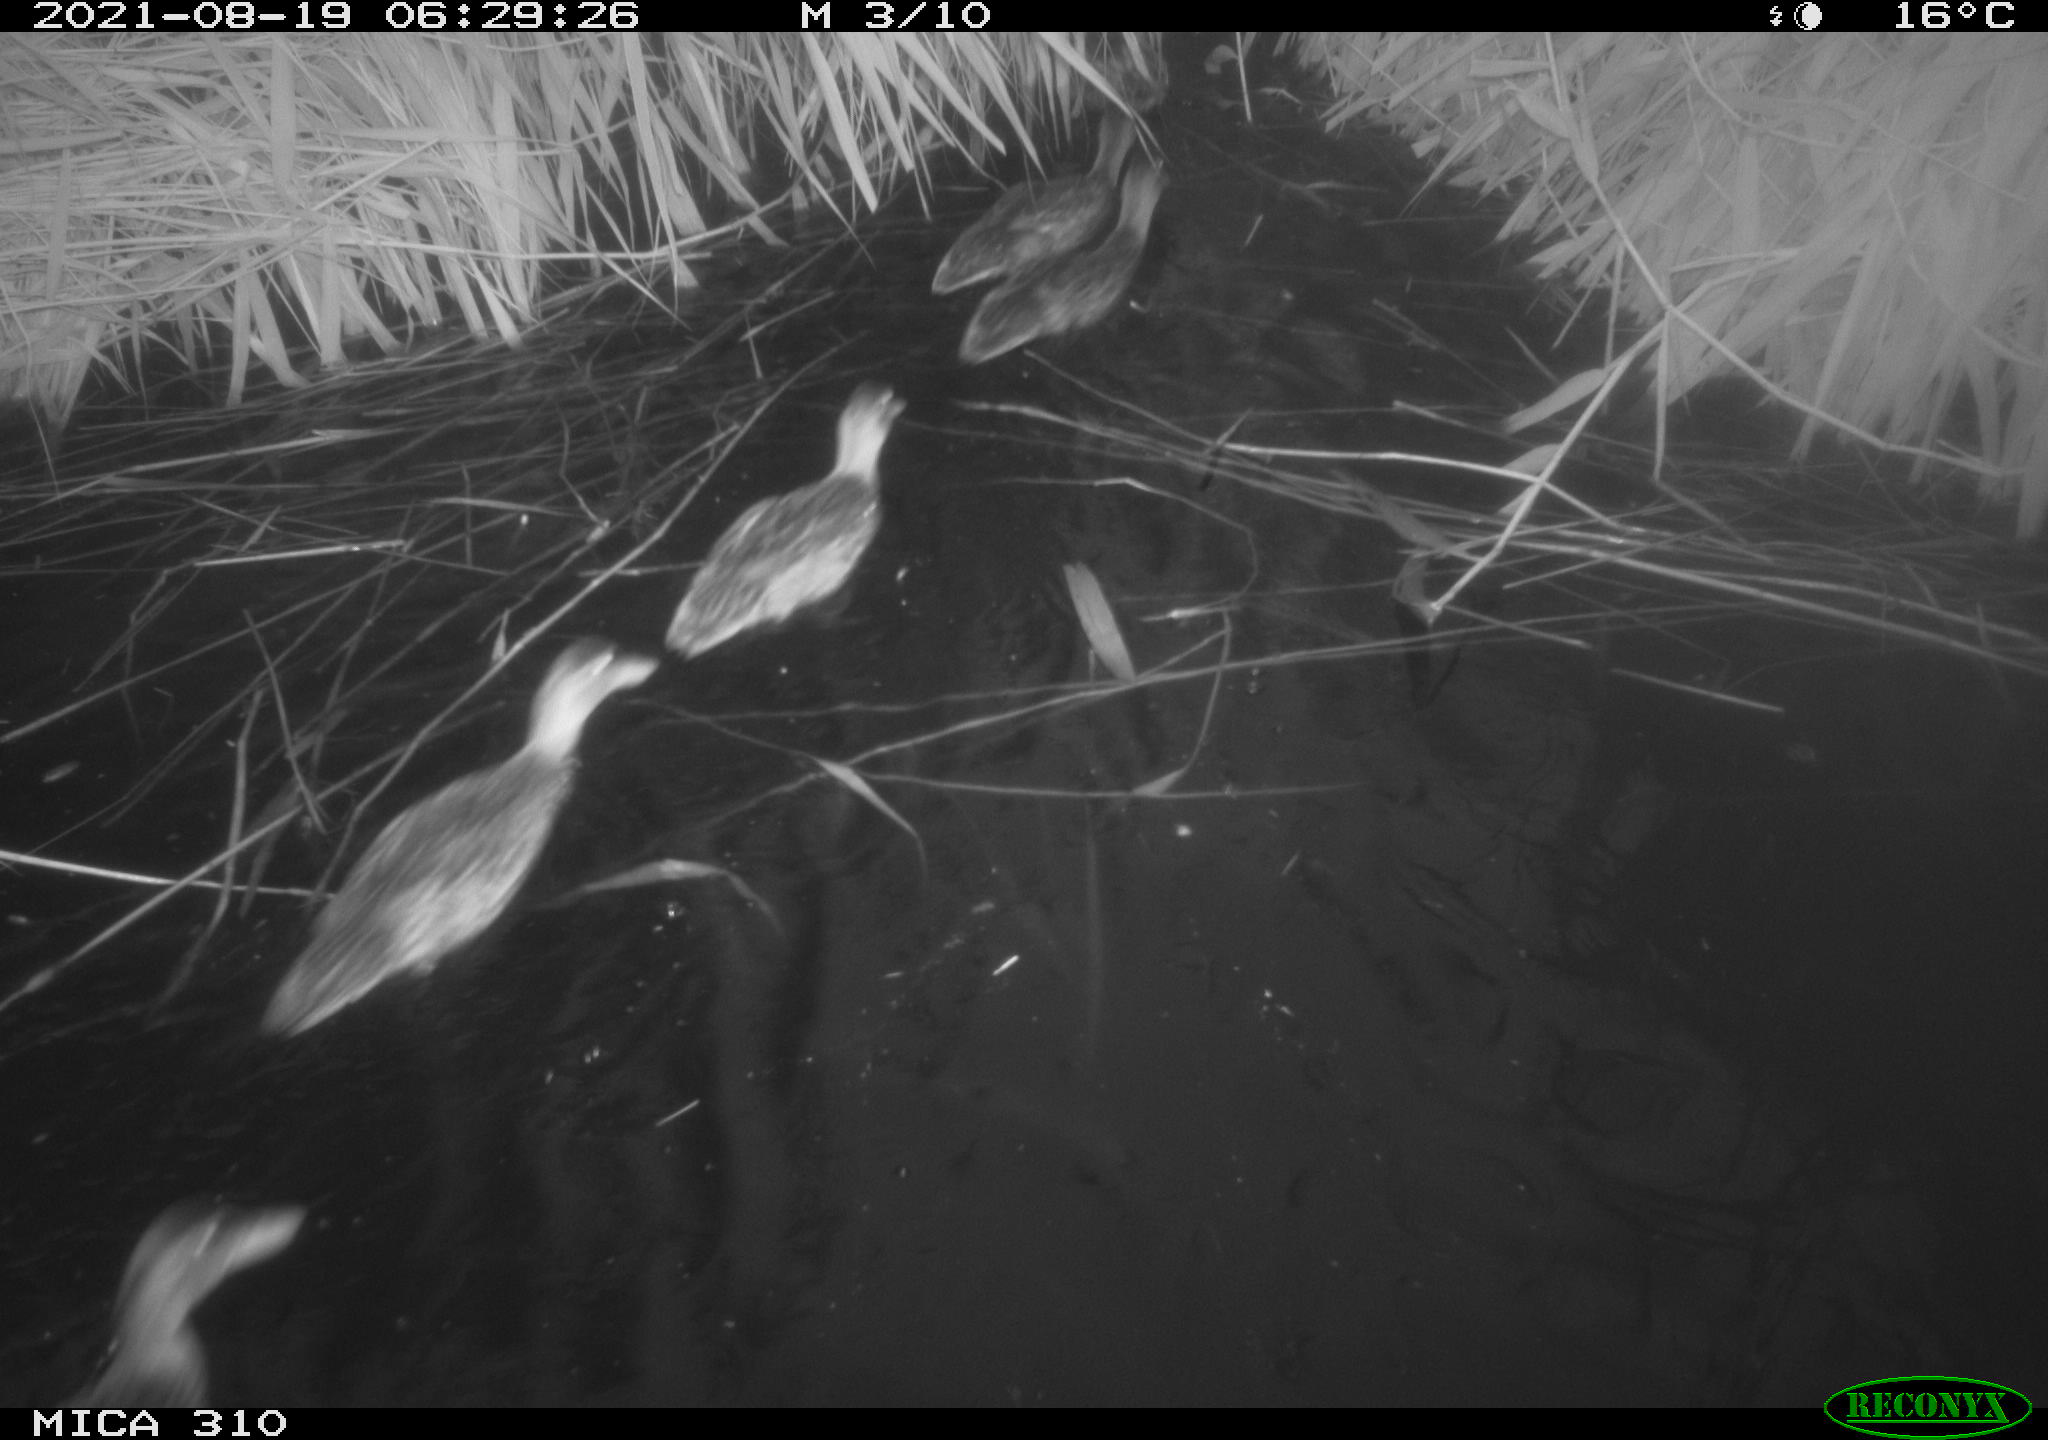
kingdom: Animalia
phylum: Chordata
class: Aves
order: Pelecaniformes
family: Ardeidae
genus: Ardea
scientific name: Ardea
